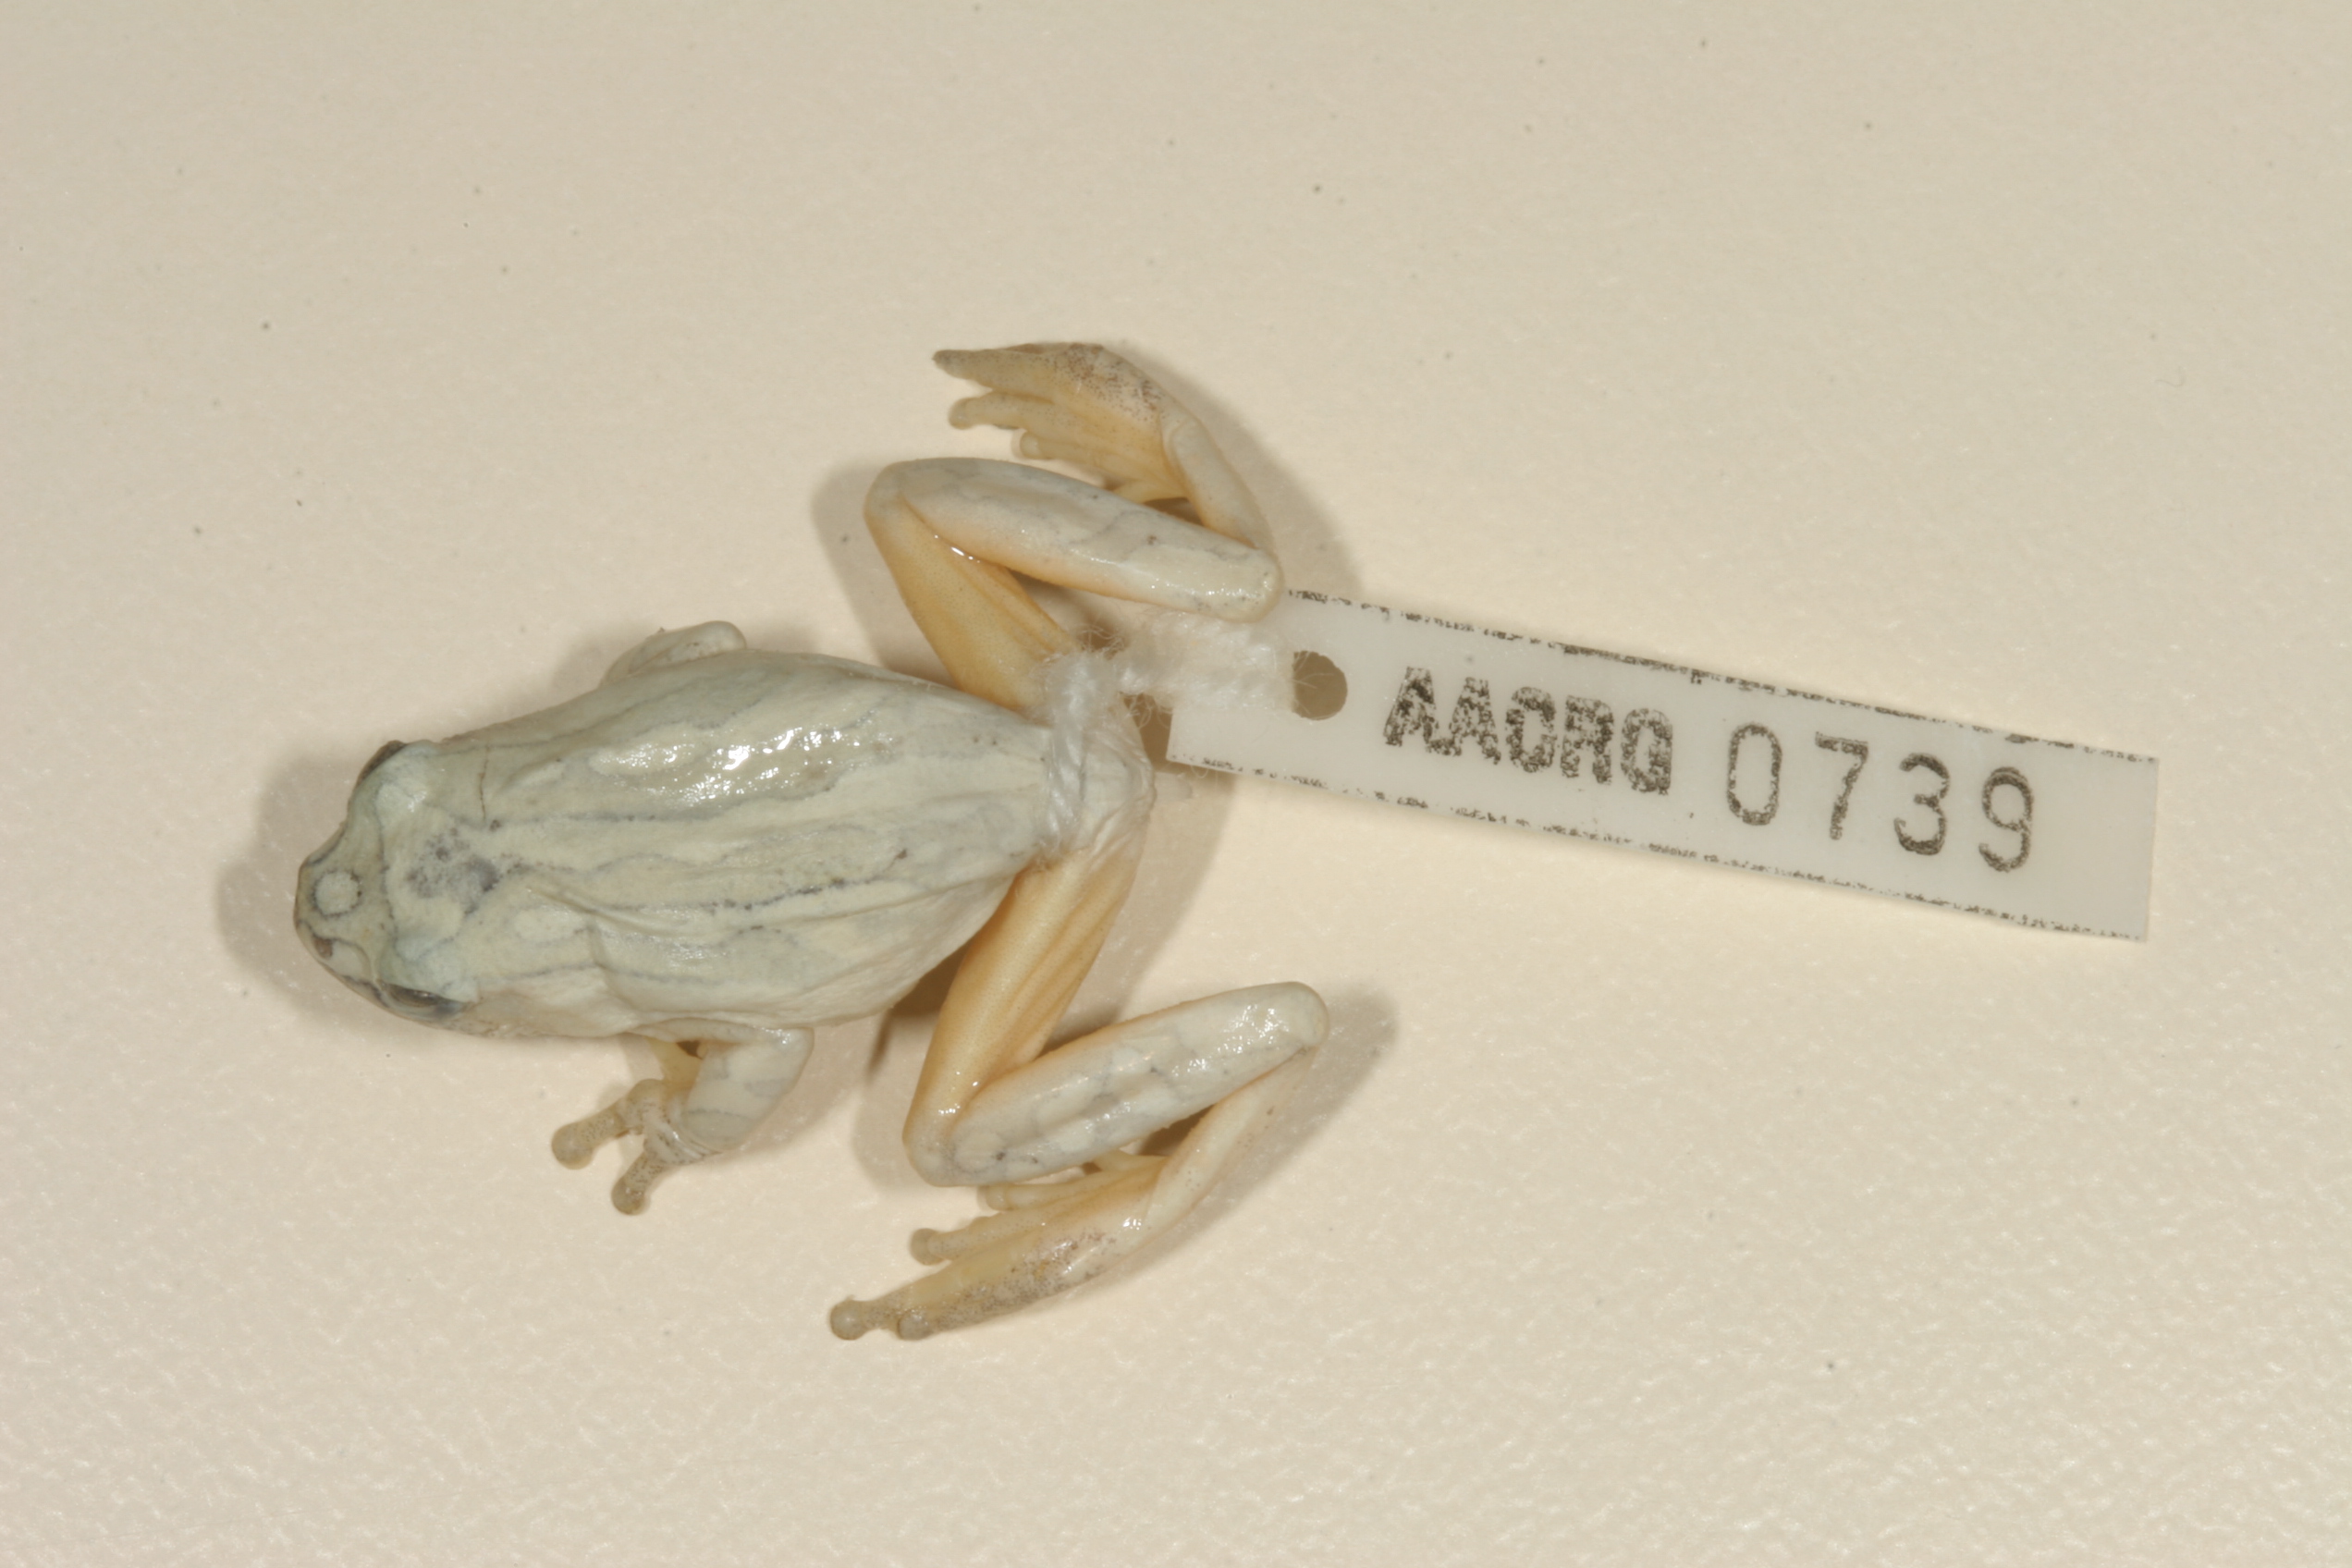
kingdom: Animalia
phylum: Chordata
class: Amphibia
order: Anura
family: Hyperoliidae
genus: Hyperolius
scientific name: Hyperolius marmoratus
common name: Painted reed frog
